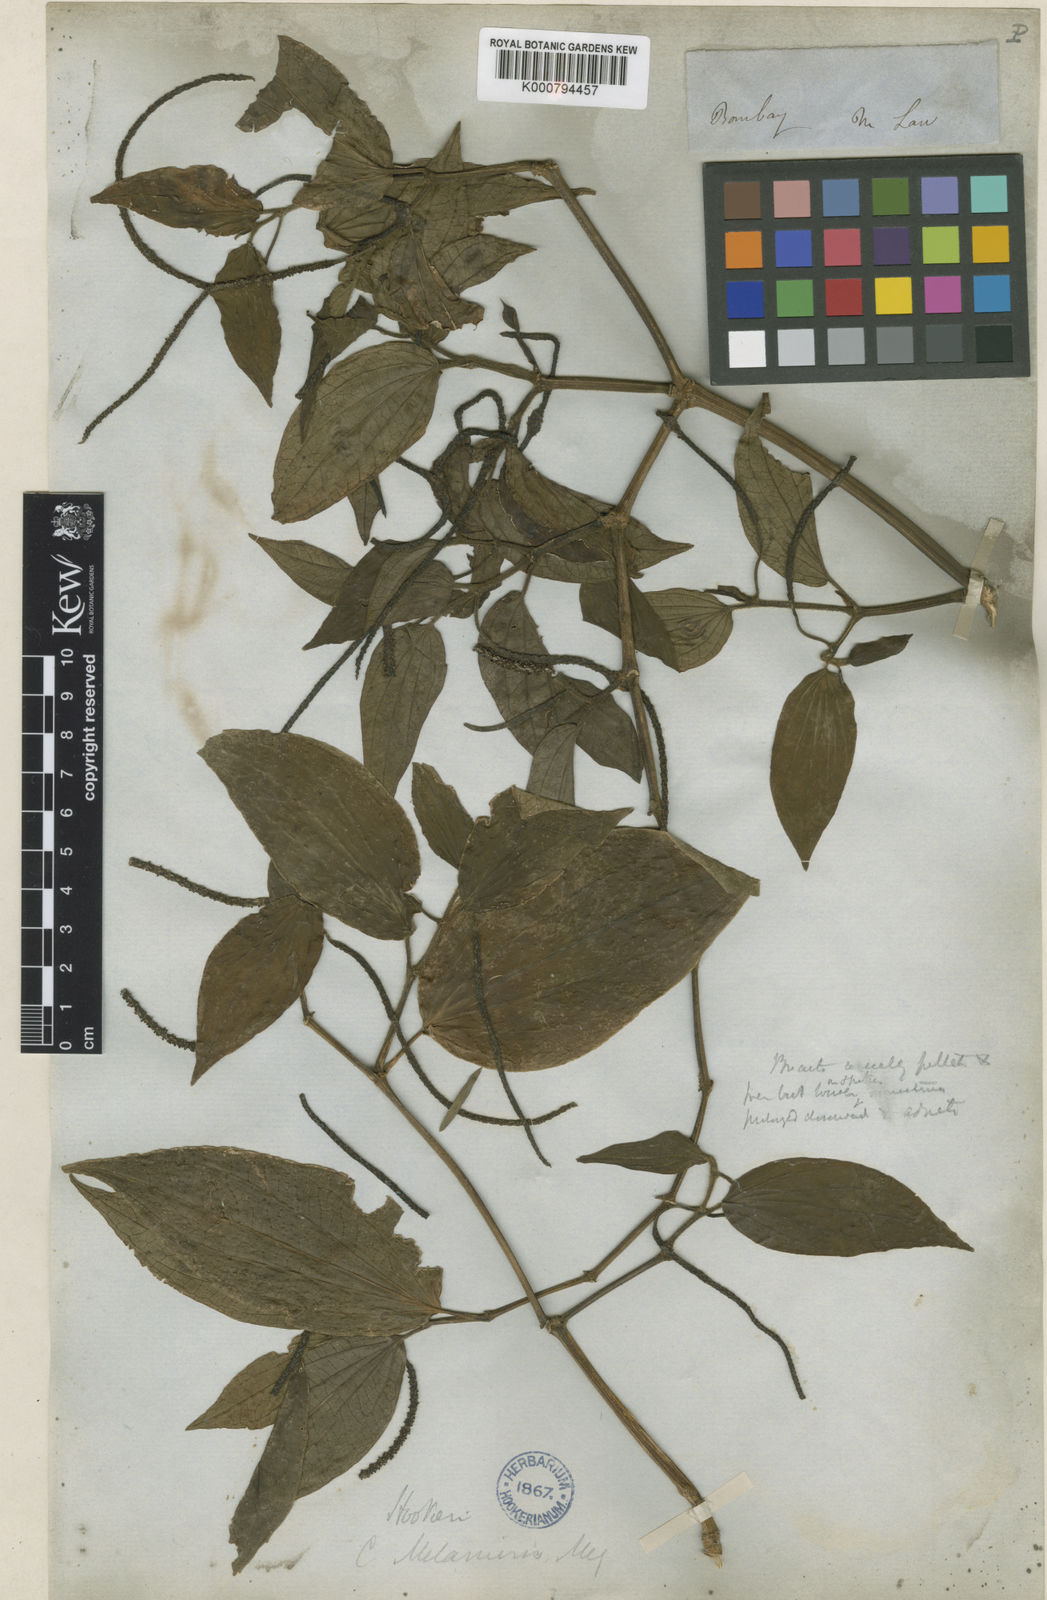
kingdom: Plantae
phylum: Tracheophyta
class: Magnoliopsida
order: Piperales
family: Piperaceae
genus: Piper
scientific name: Piper hookeri
